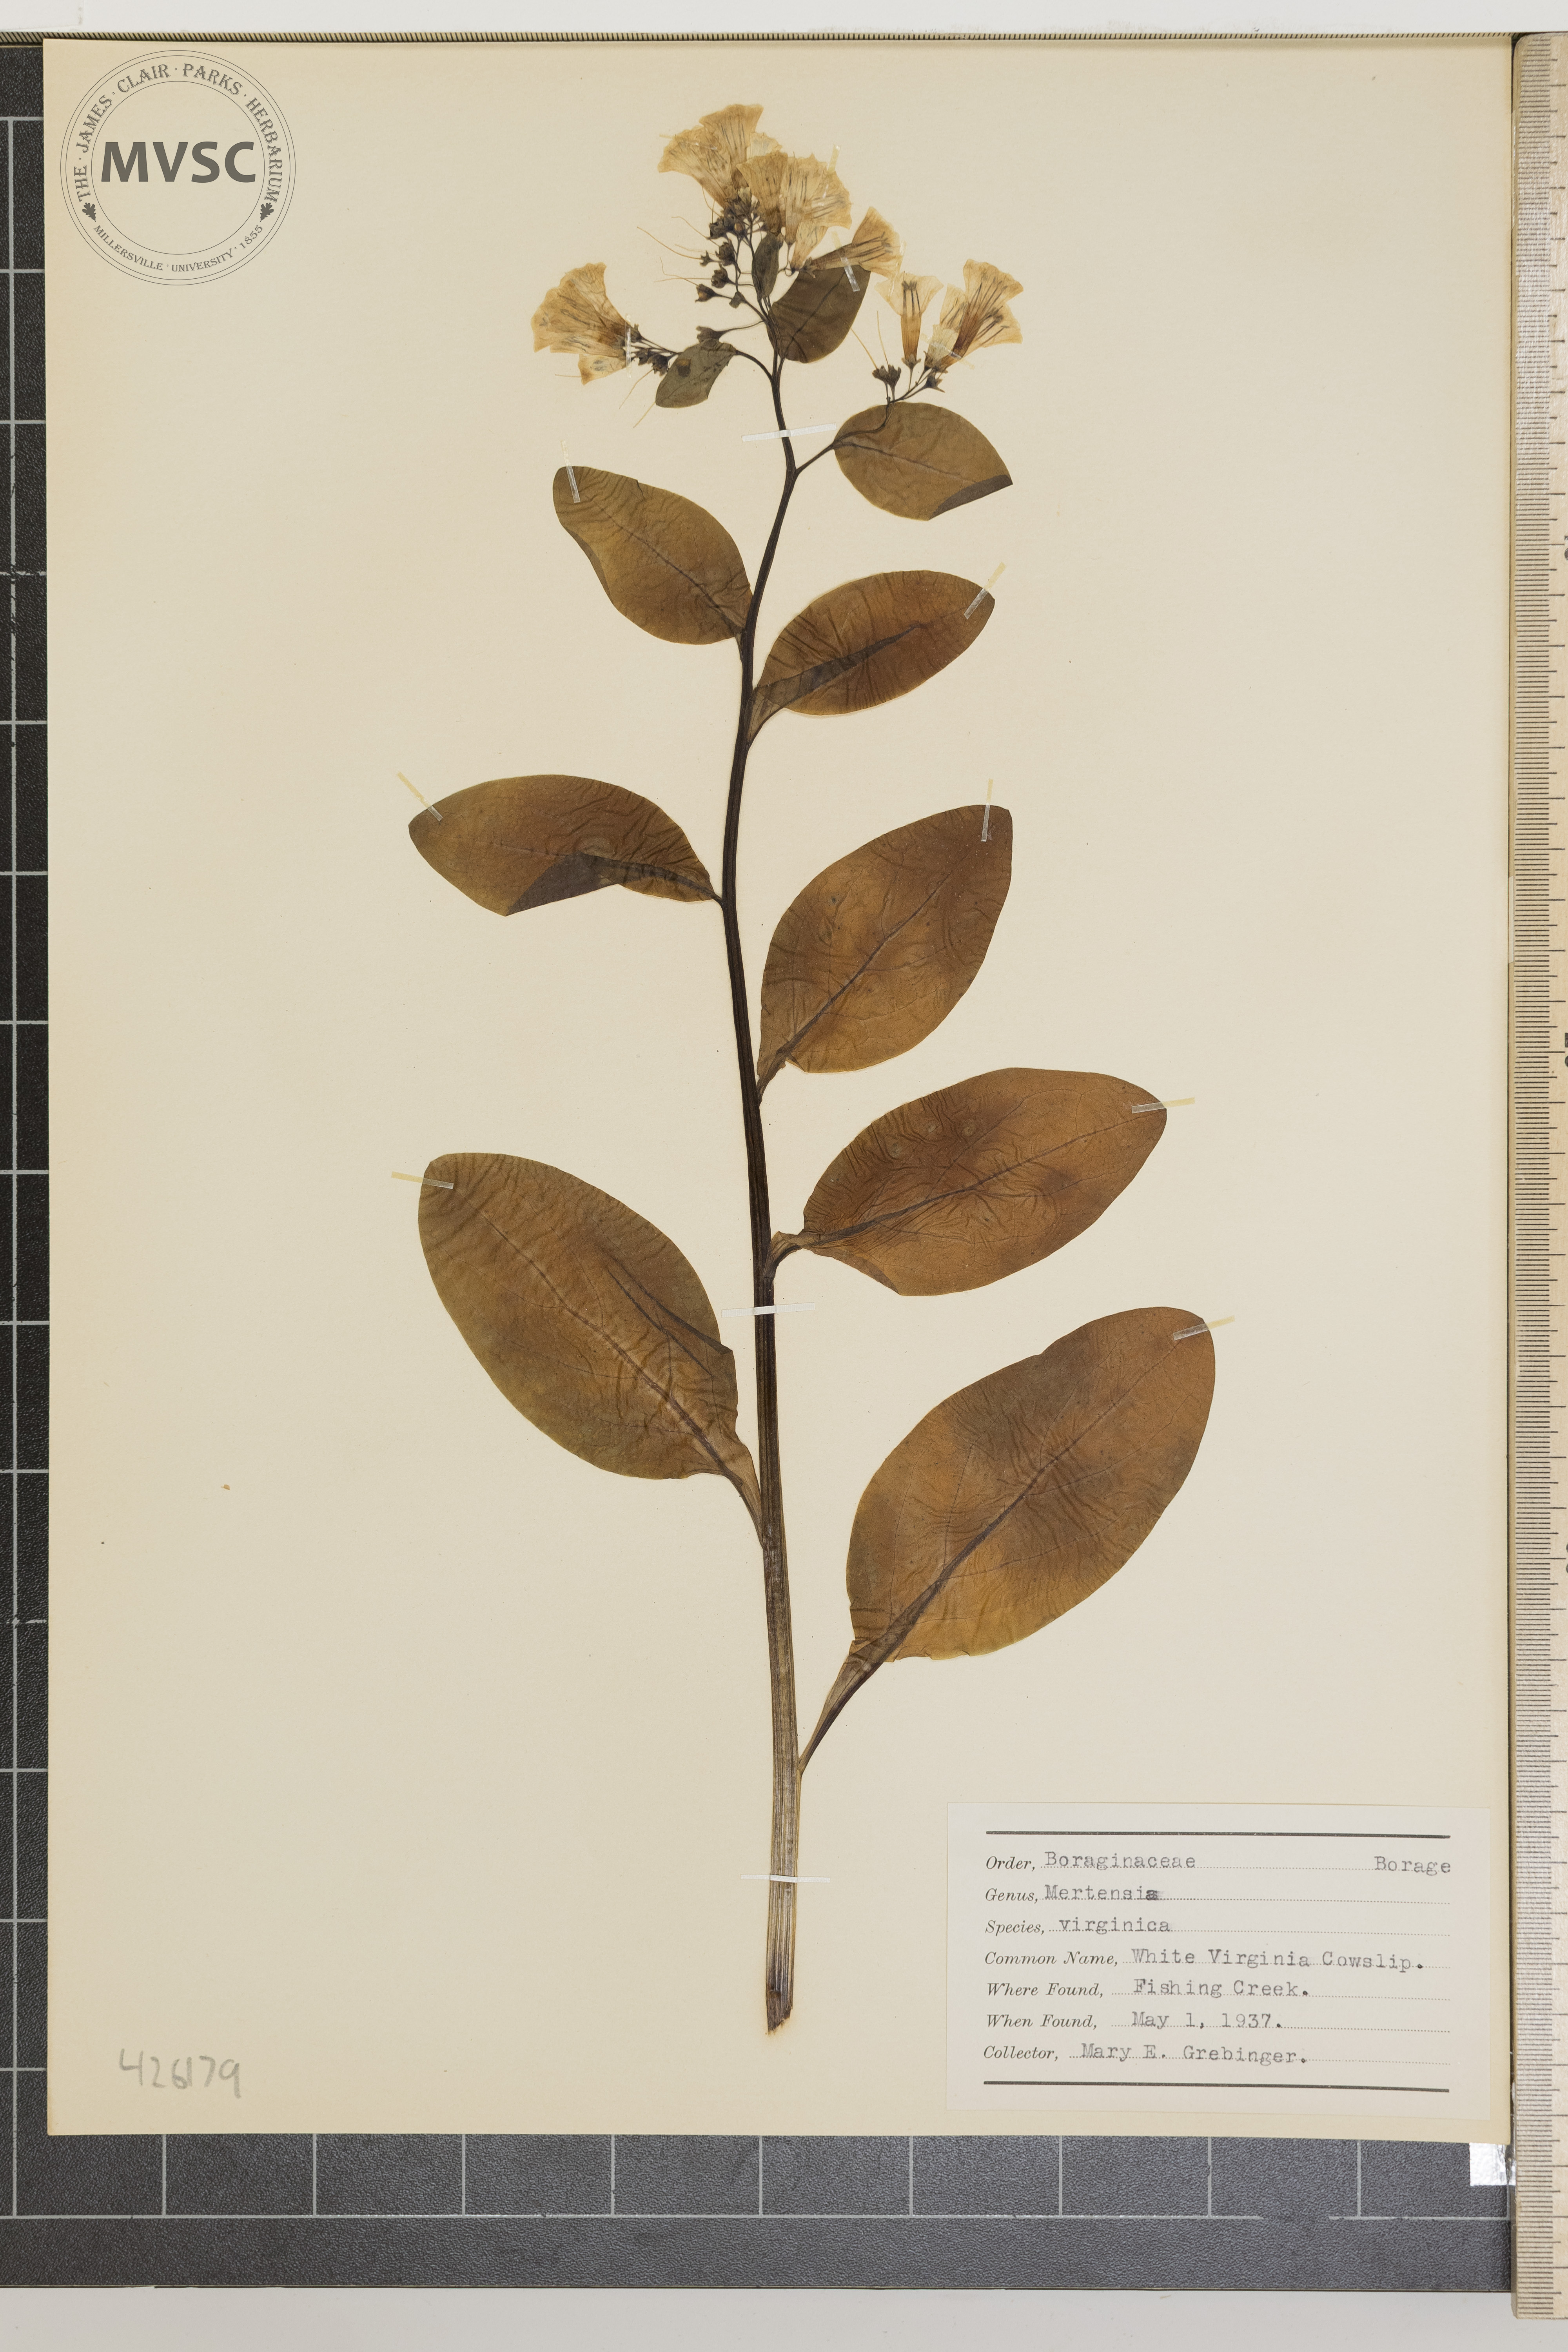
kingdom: Plantae
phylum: Tracheophyta
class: Magnoliopsida
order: Boraginales
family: Boraginaceae
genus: Mertensia
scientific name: Mertensia virginica
